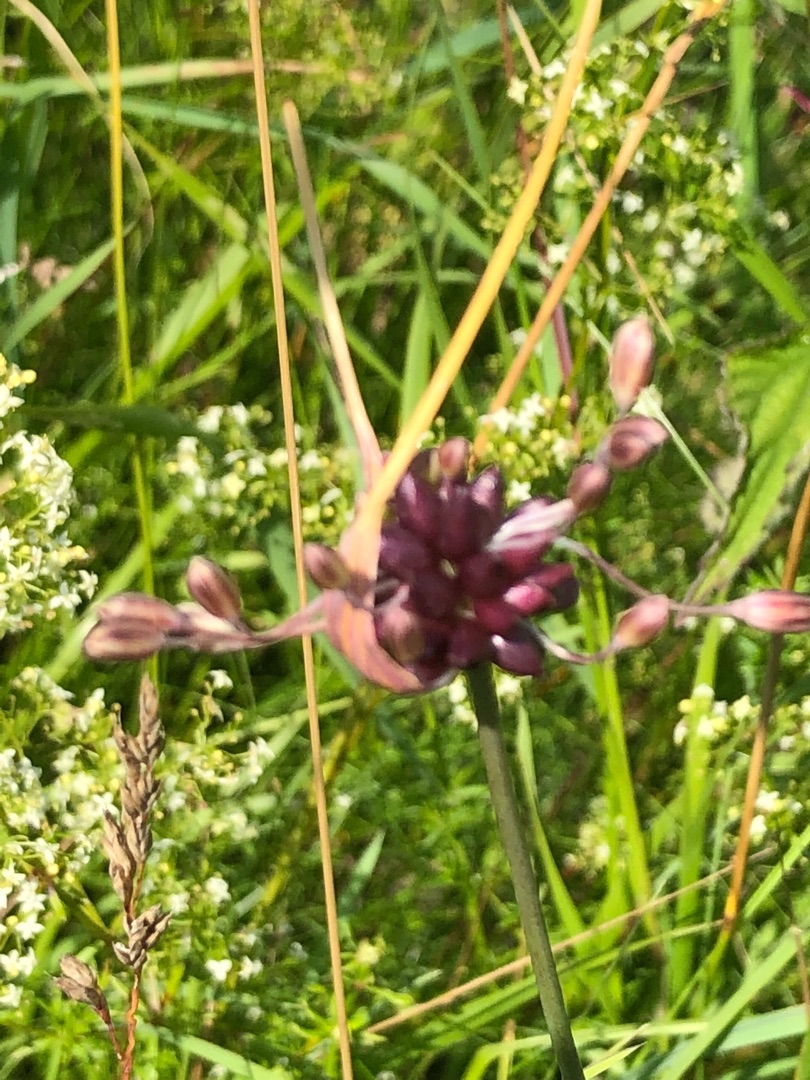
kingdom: Plantae
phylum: Tracheophyta
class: Liliopsida
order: Asparagales
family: Amaryllidaceae
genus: Allium
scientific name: Allium oleraceum
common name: Vild løg
